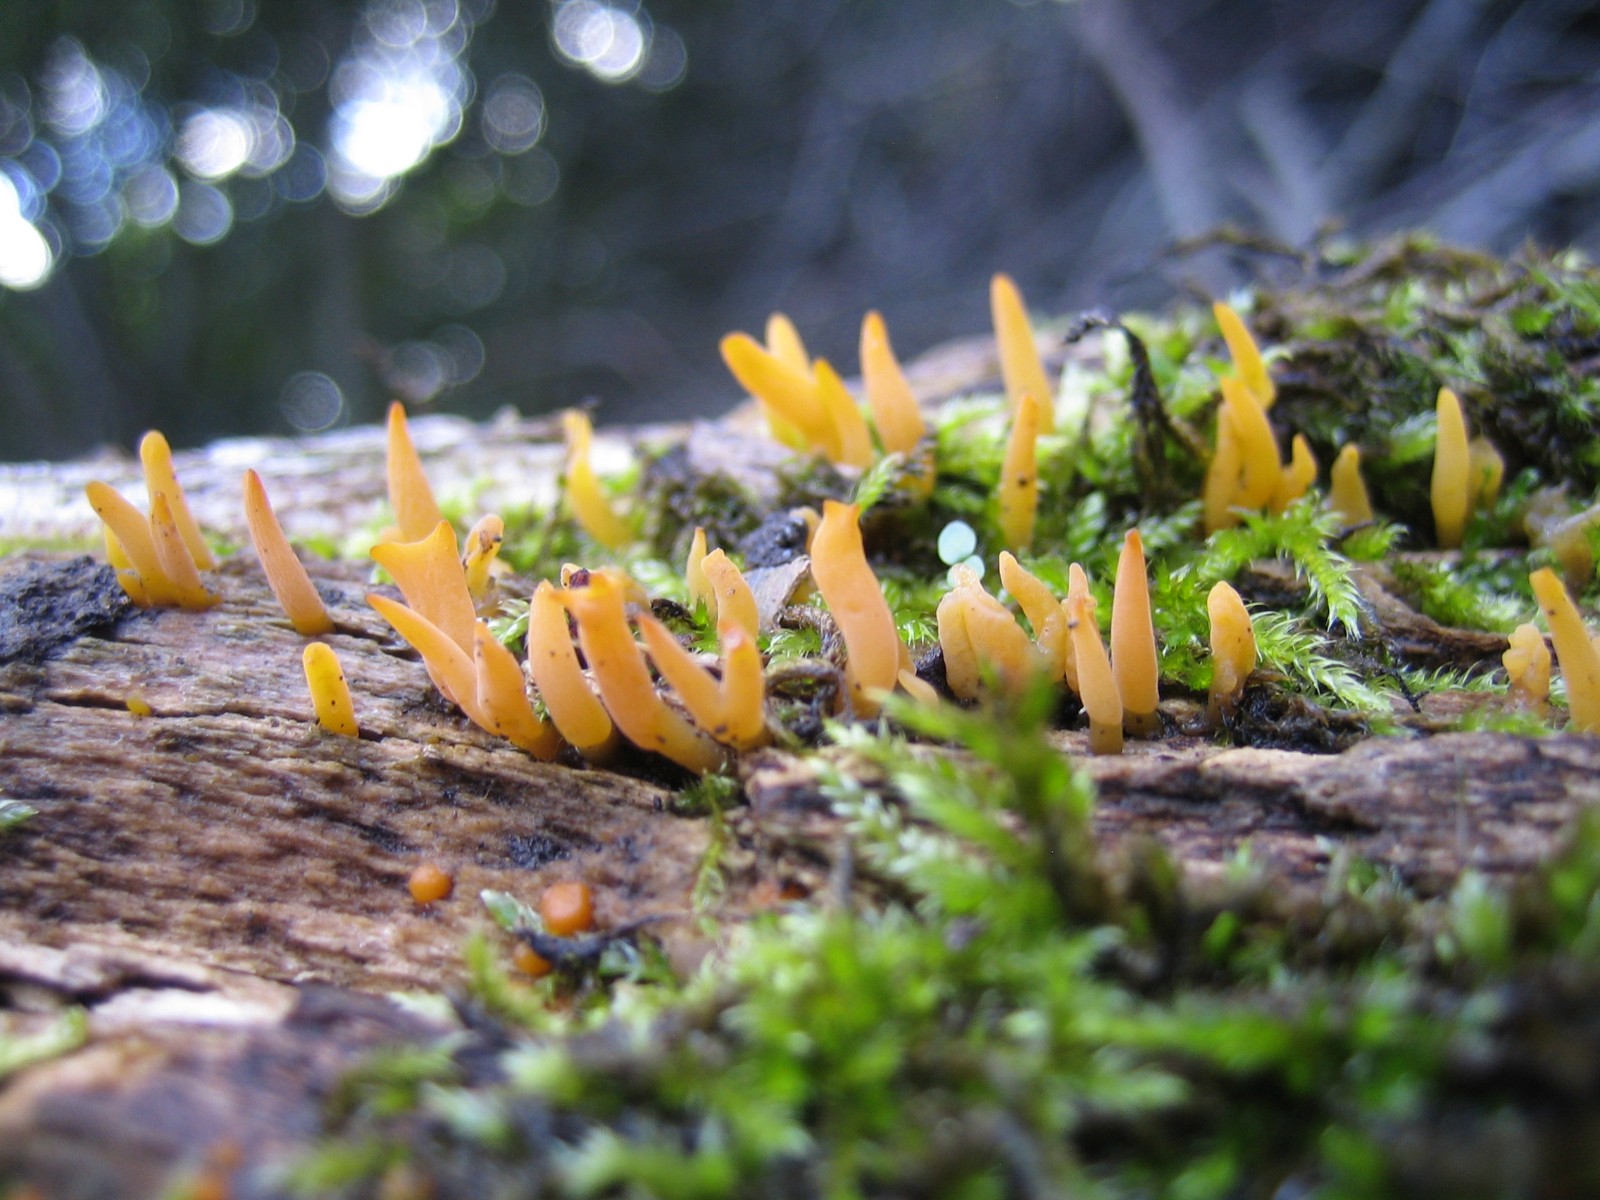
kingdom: Fungi
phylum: Basidiomycota
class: Dacrymycetes
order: Dacrymycetales
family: Dacrymycetaceae
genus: Calocera
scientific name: Calocera cornea
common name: liden guldgaffel
